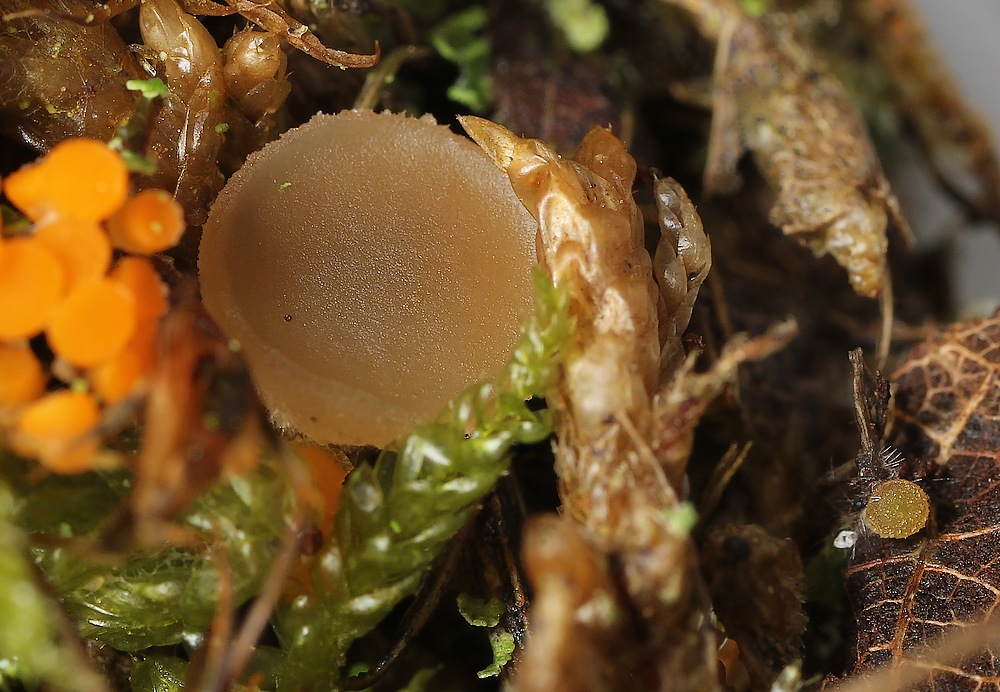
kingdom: Fungi
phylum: Ascomycota
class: Pezizomycetes
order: Pezizales
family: Pezizaceae
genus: Peziza
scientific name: Peziza perparva
